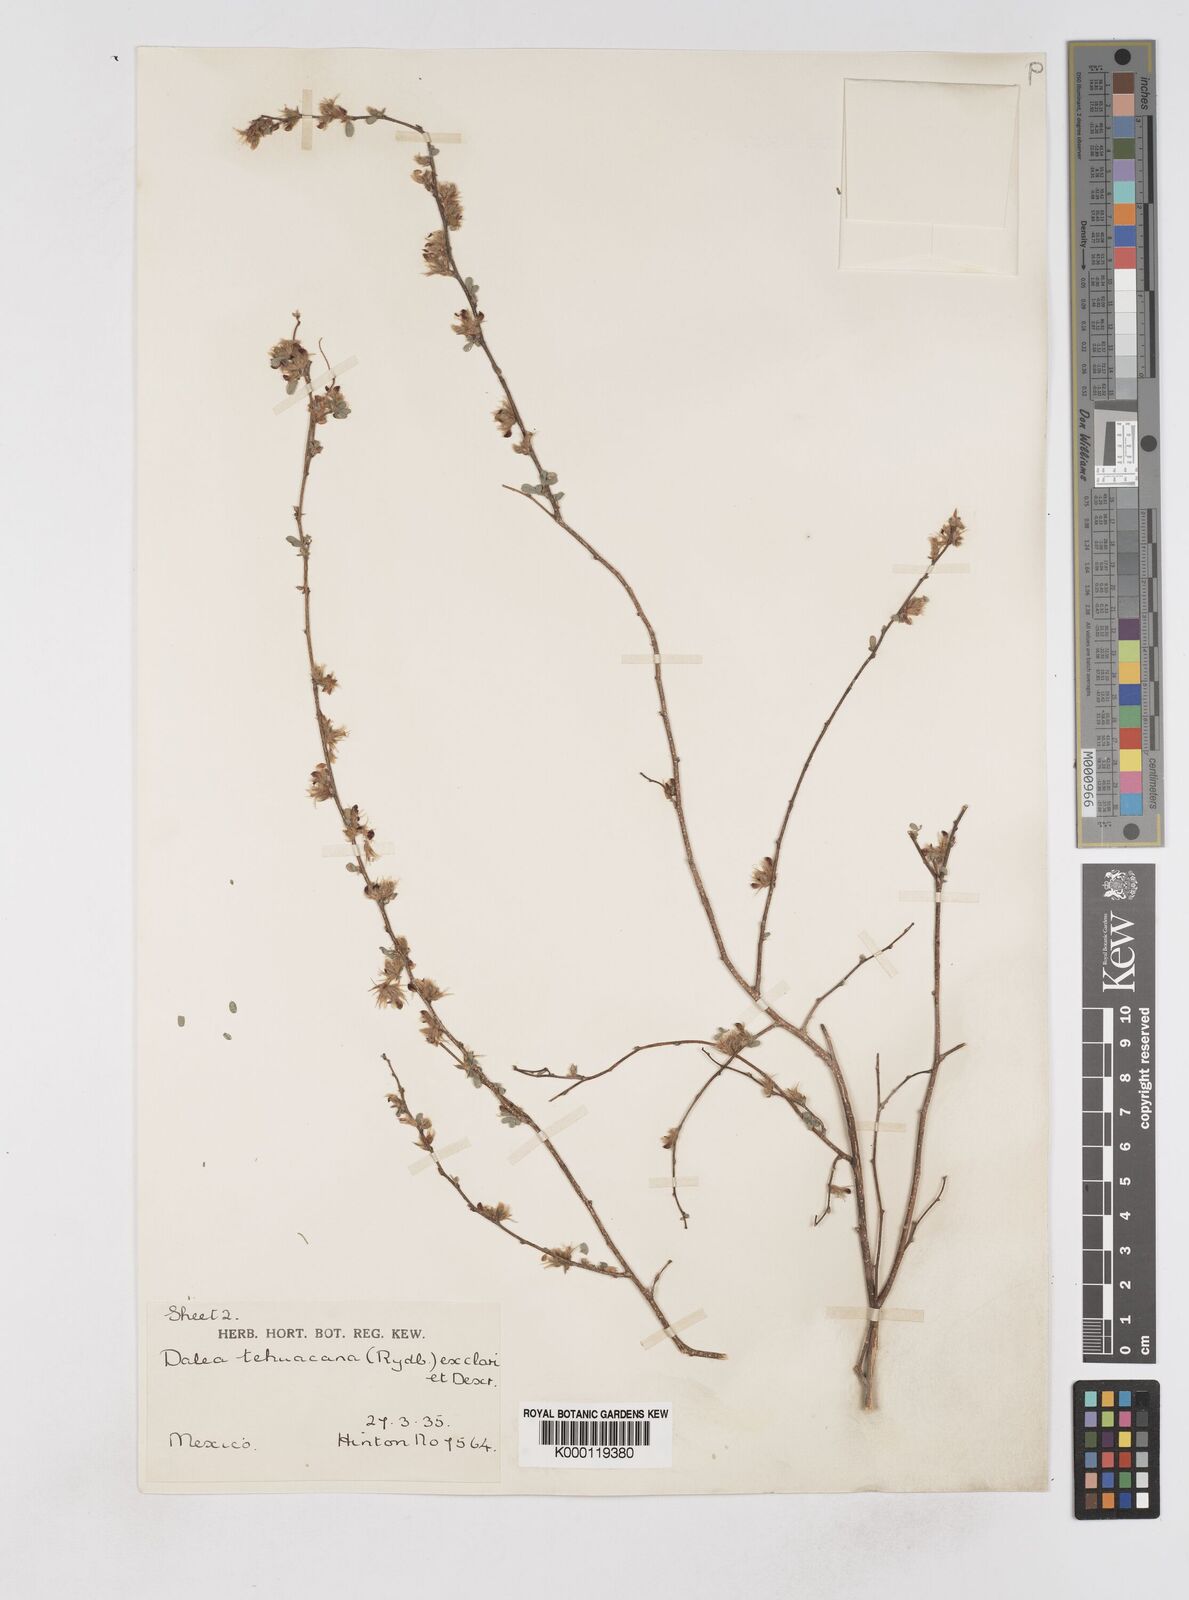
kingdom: Plantae
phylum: Tracheophyta
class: Magnoliopsida
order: Fabales
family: Fabaceae
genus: Dalea
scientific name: Dalea carthagenensis
